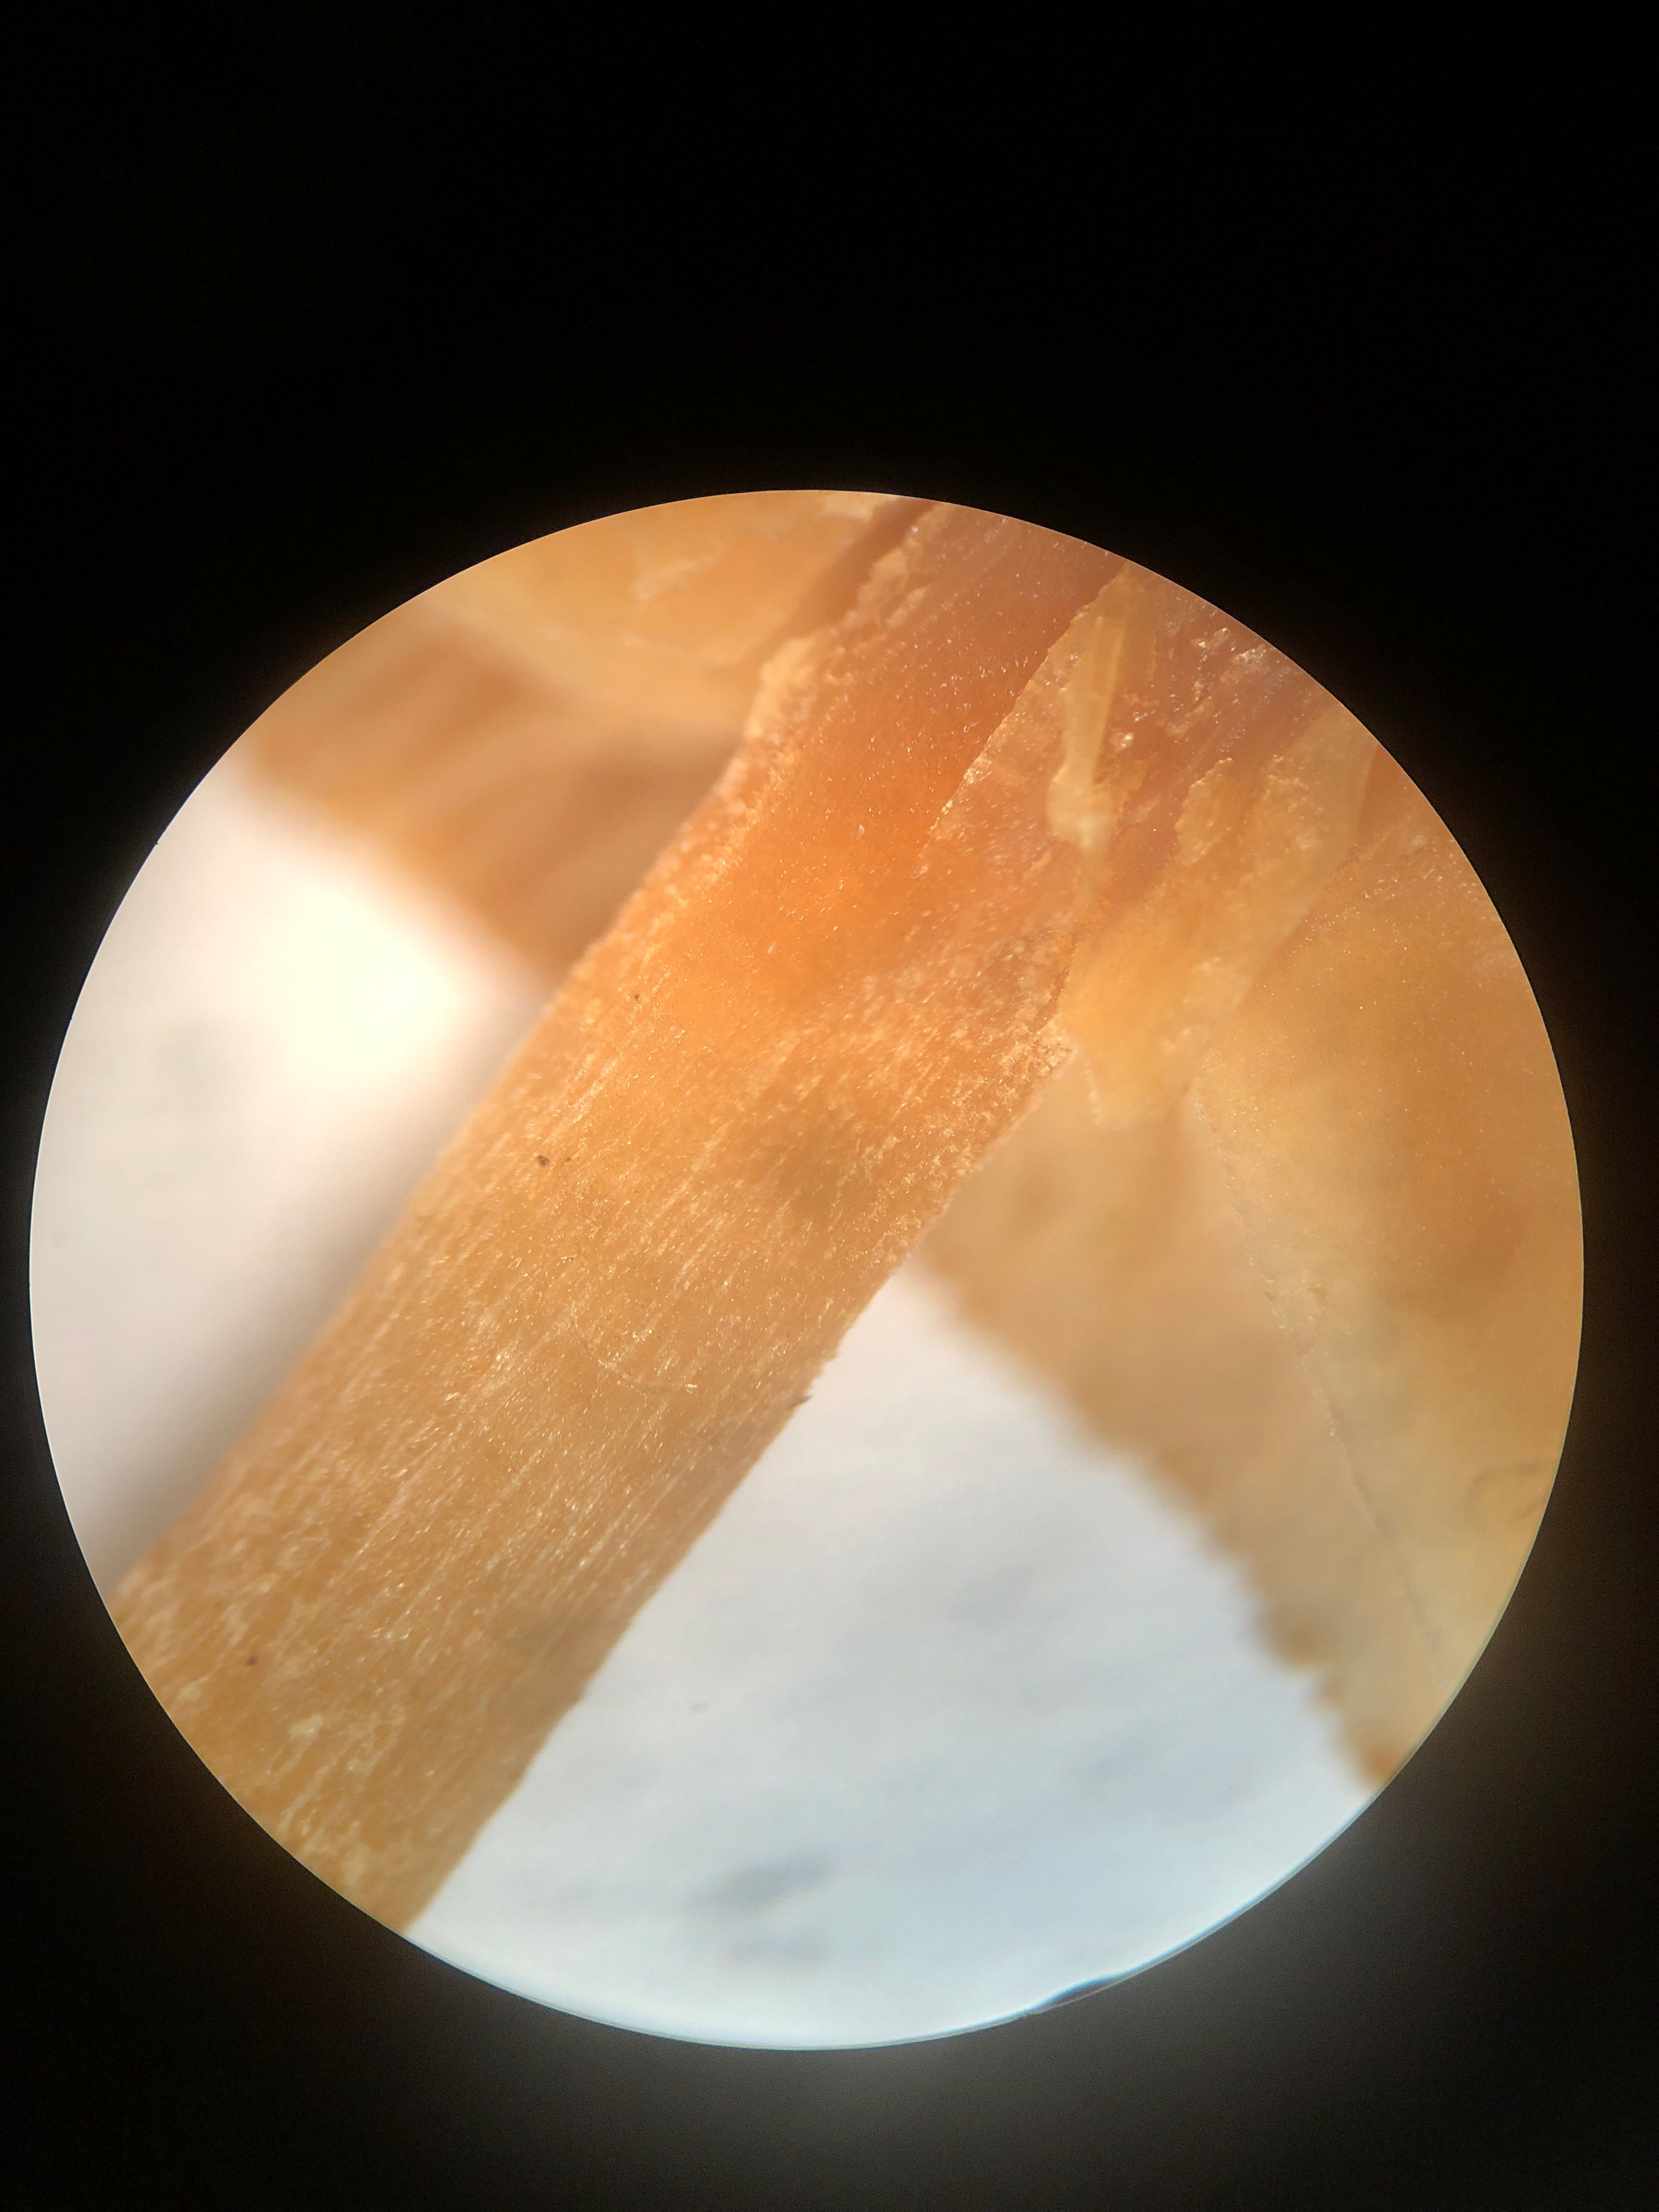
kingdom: Fungi
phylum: Basidiomycota
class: Agaricomycetes
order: Agaricales
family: Tubariaceae
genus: Tubaria
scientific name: Tubaria furfuracea
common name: kliddet fnughat
